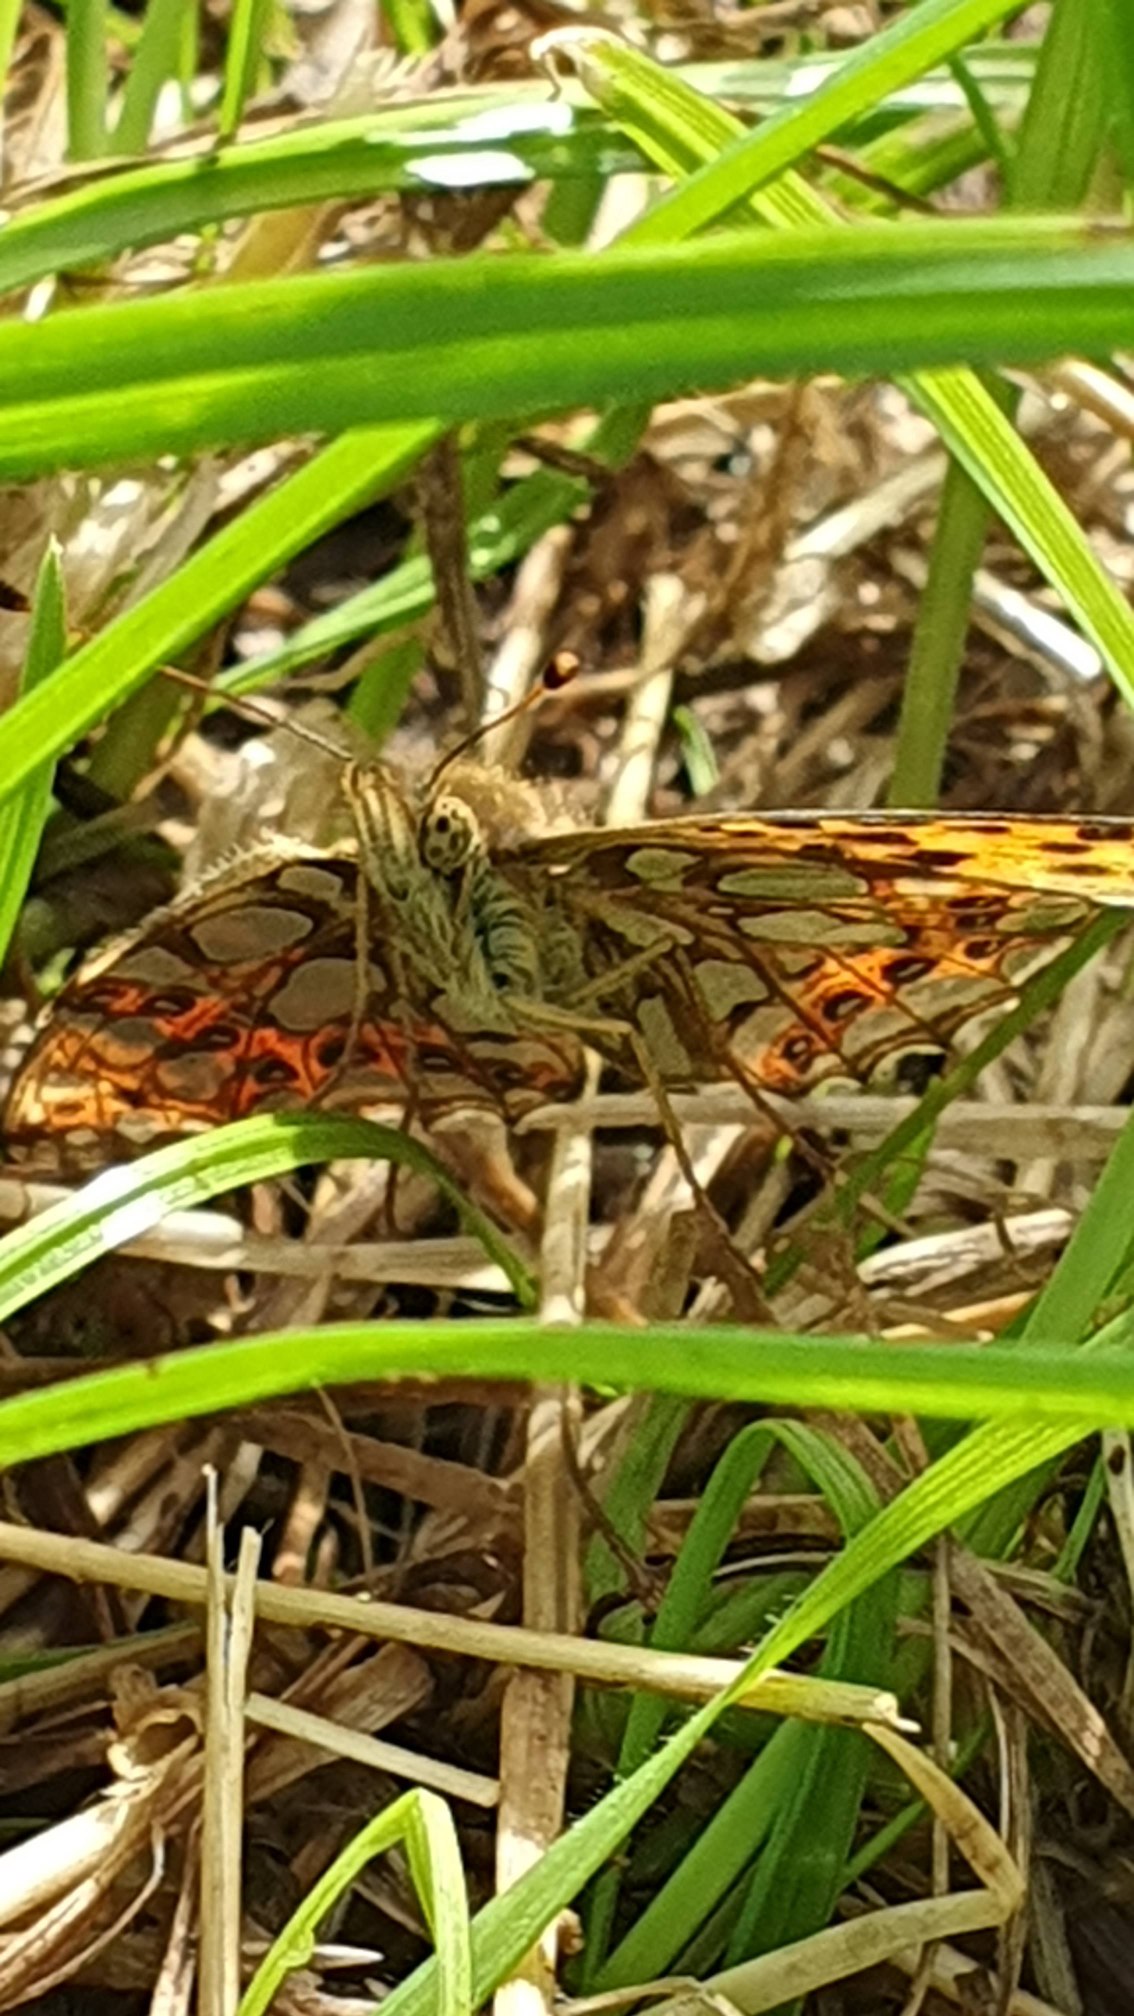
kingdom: Animalia
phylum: Arthropoda
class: Insecta
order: Lepidoptera
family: Nymphalidae
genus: Issoria
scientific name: Issoria lathonia
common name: Storplettet perlemorsommerfugl
